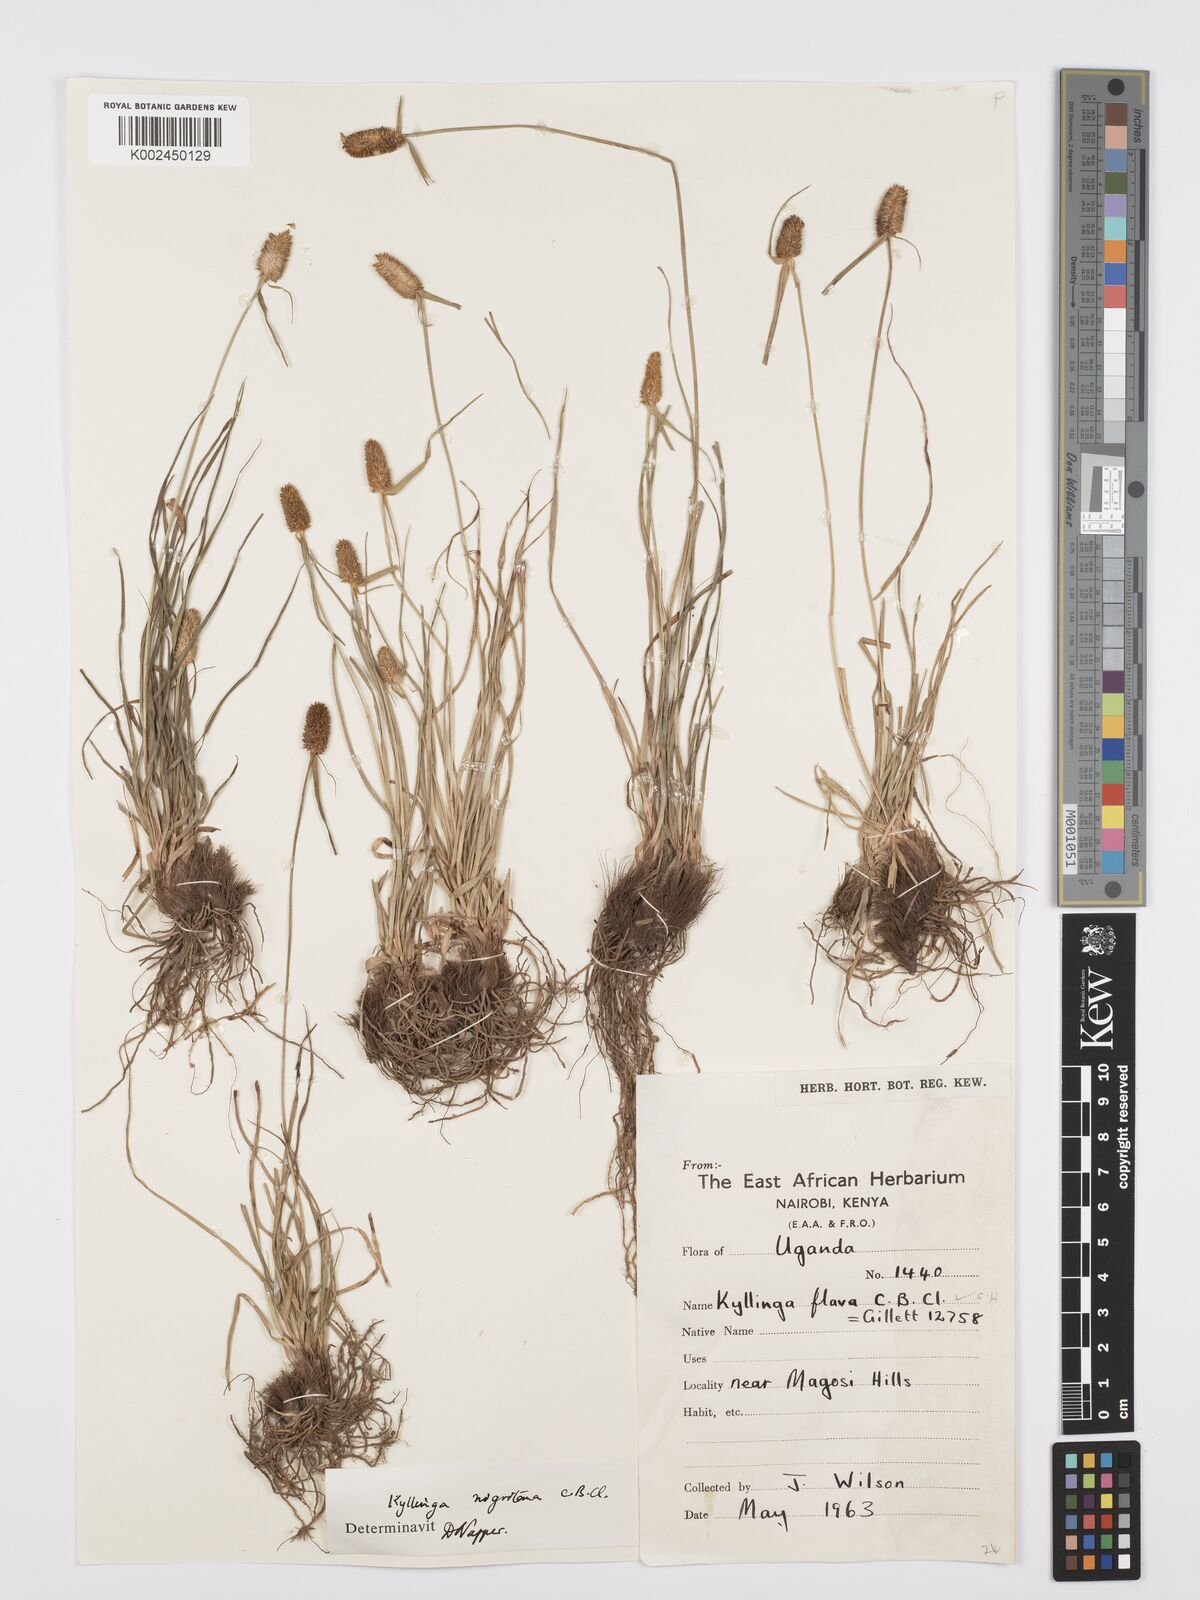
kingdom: Plantae
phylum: Tracheophyta
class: Liliopsida
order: Poales
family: Cyperaceae
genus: Cyperus
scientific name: Cyperus
